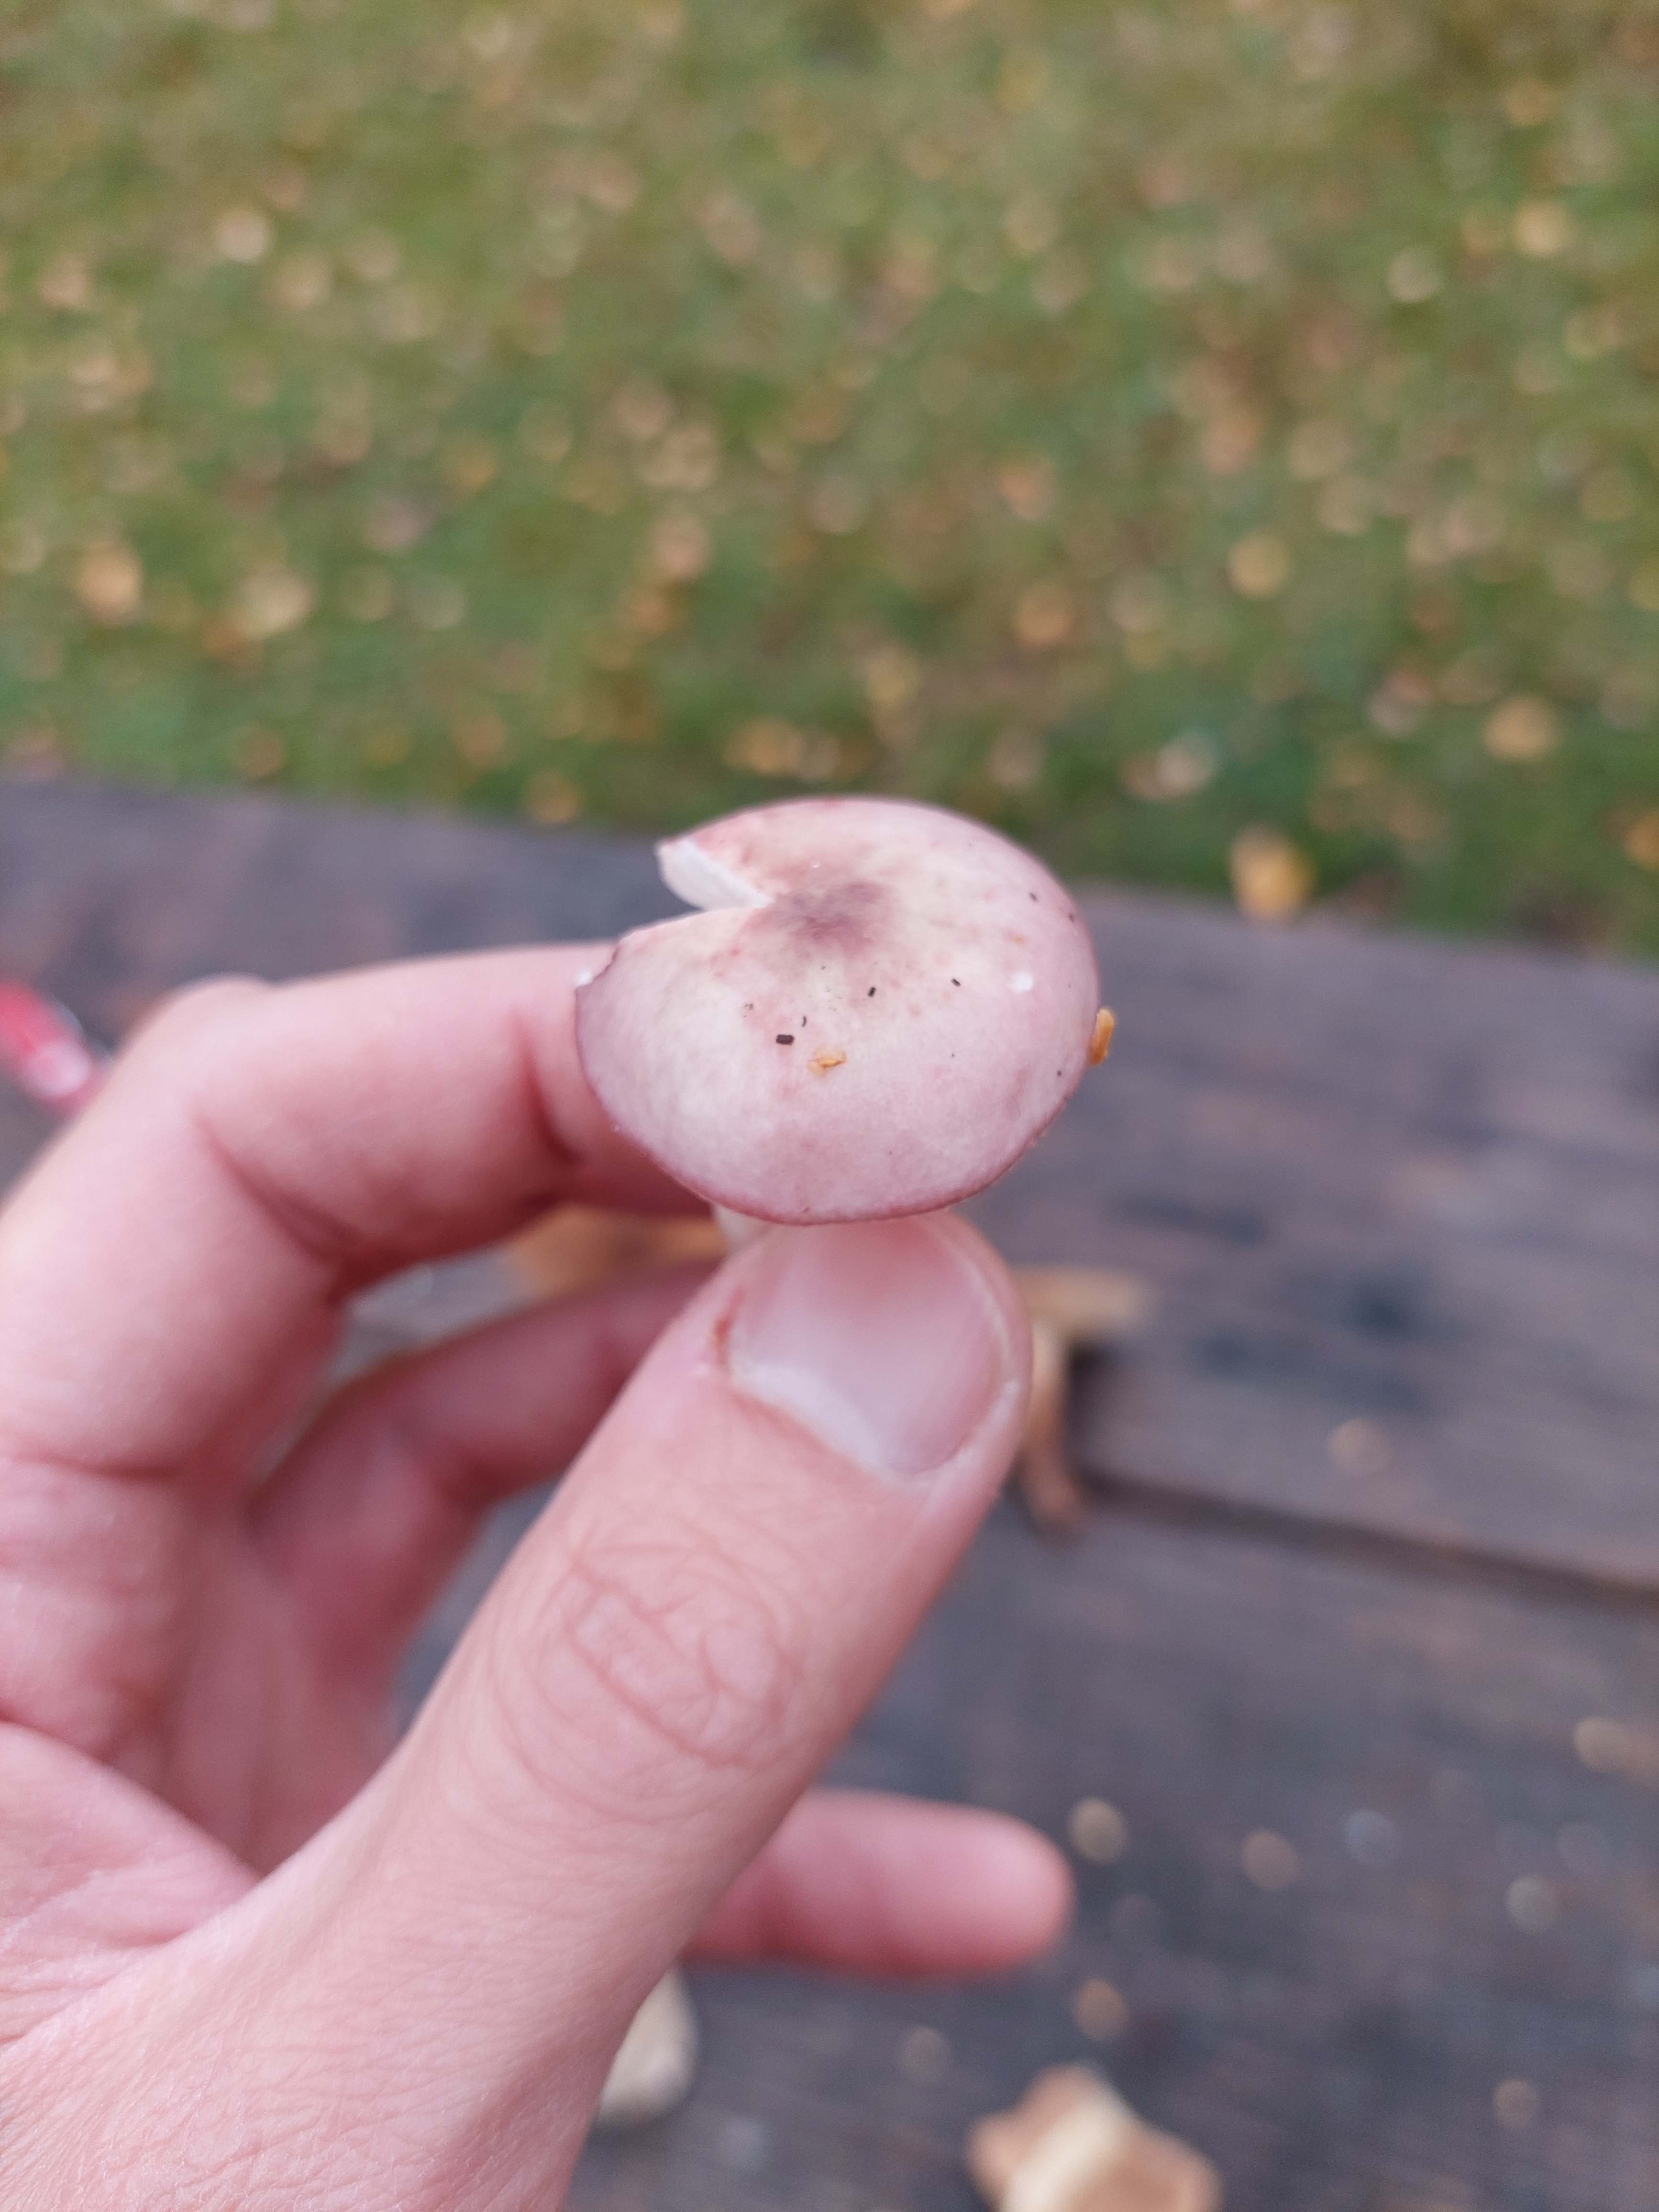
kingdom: Fungi
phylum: Basidiomycota
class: Agaricomycetes
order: Russulales
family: Russulaceae
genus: Russula
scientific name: Russula
